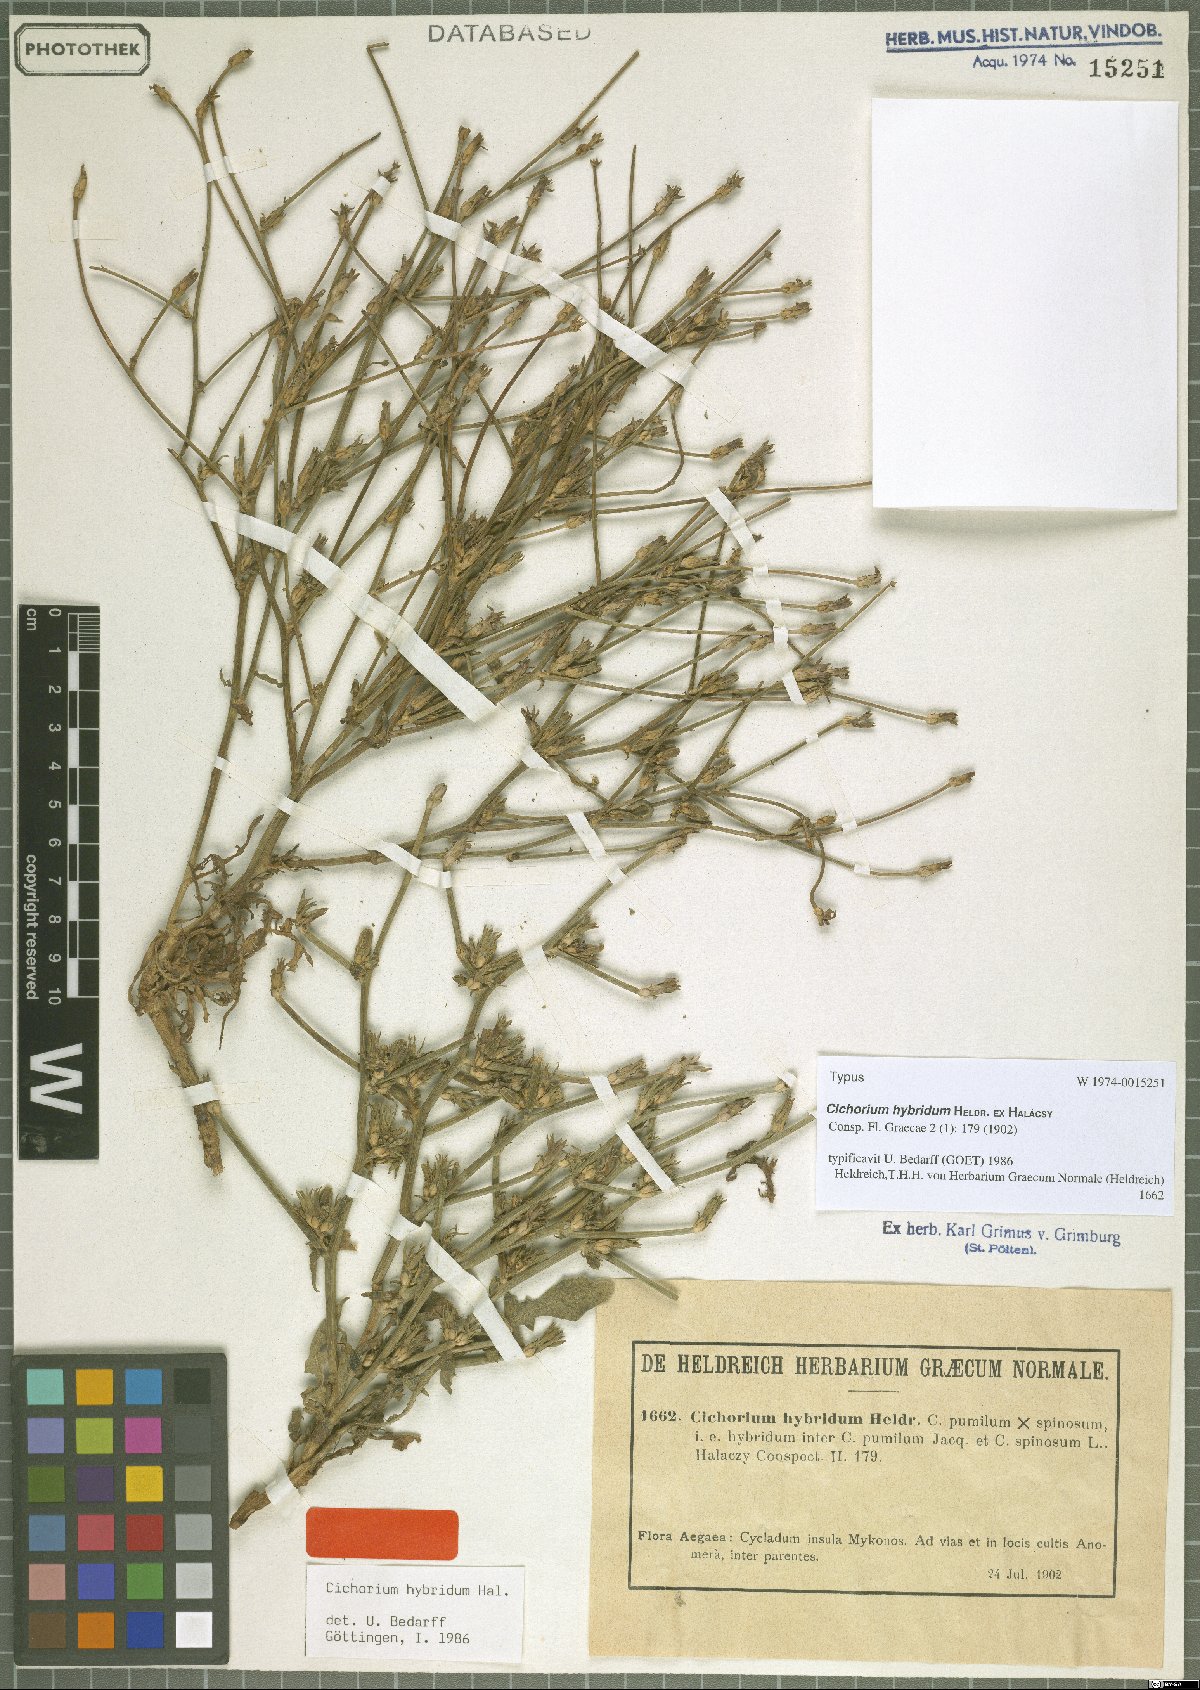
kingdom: Plantae
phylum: Tracheophyta
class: Magnoliopsida
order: Asterales
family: Asteraceae
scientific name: Asteraceae
